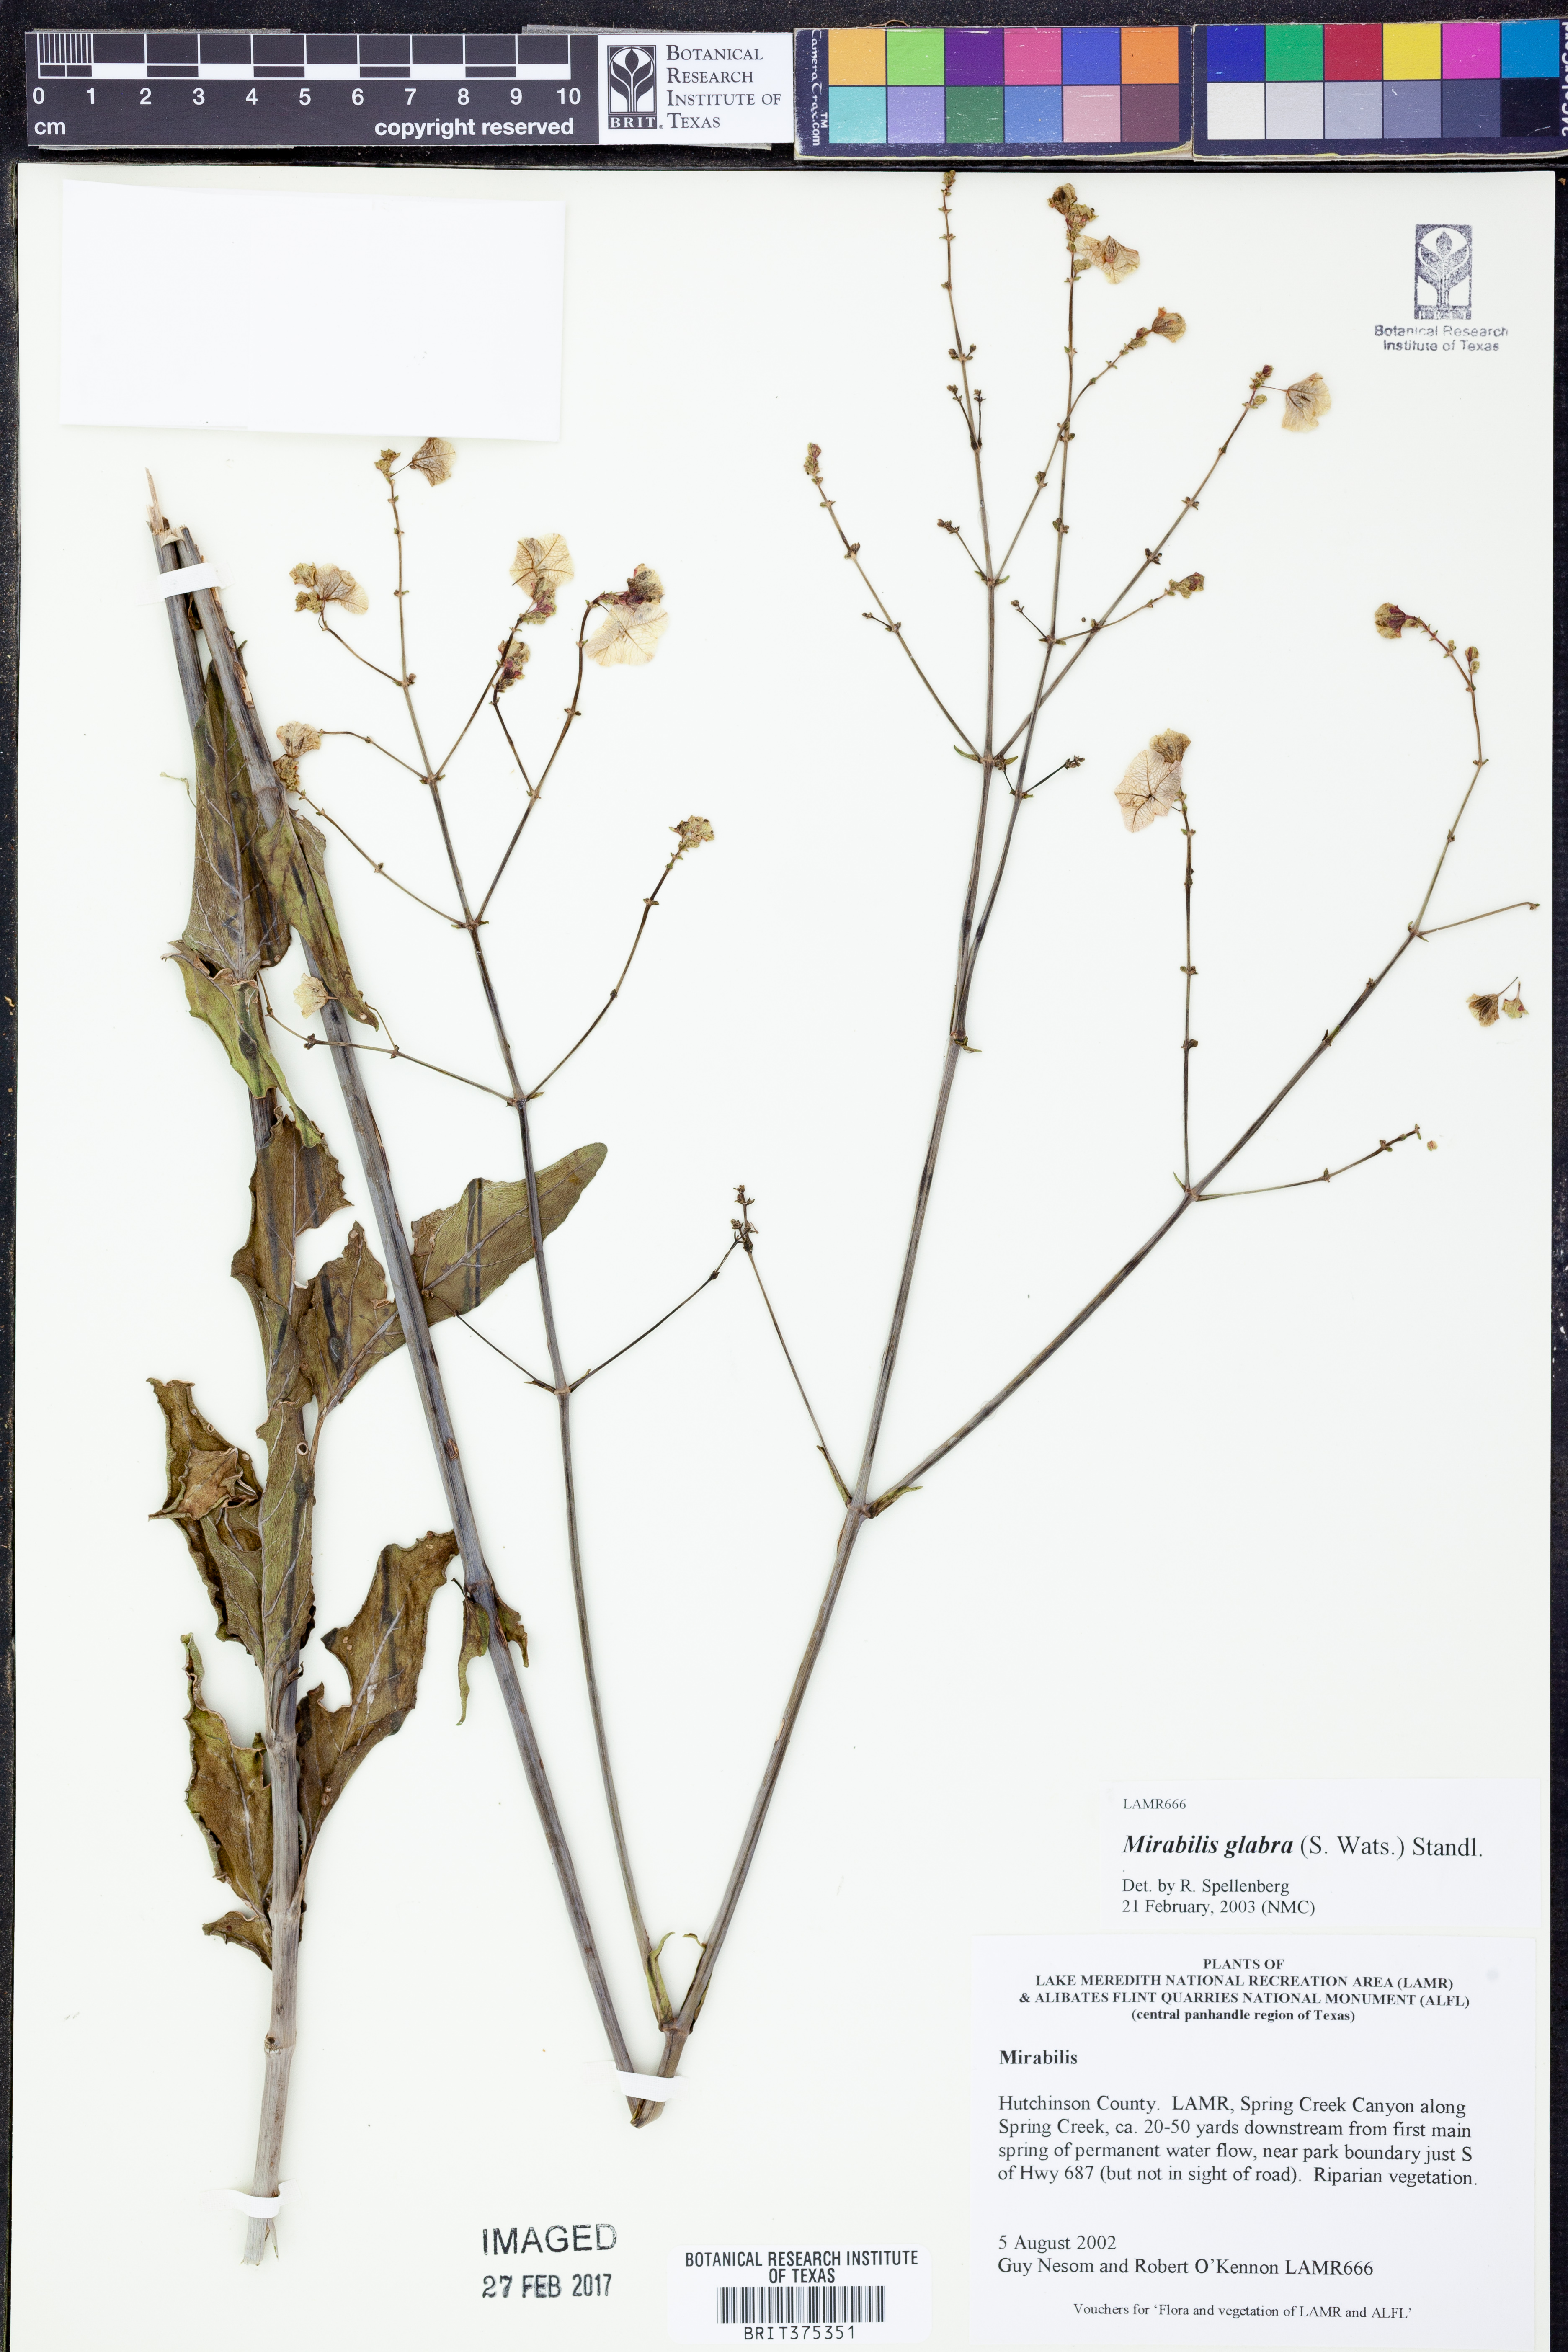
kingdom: Plantae
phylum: Tracheophyta
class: Magnoliopsida
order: Caryophyllales
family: Nyctaginaceae
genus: Mirabilis
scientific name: Mirabilis glabra
